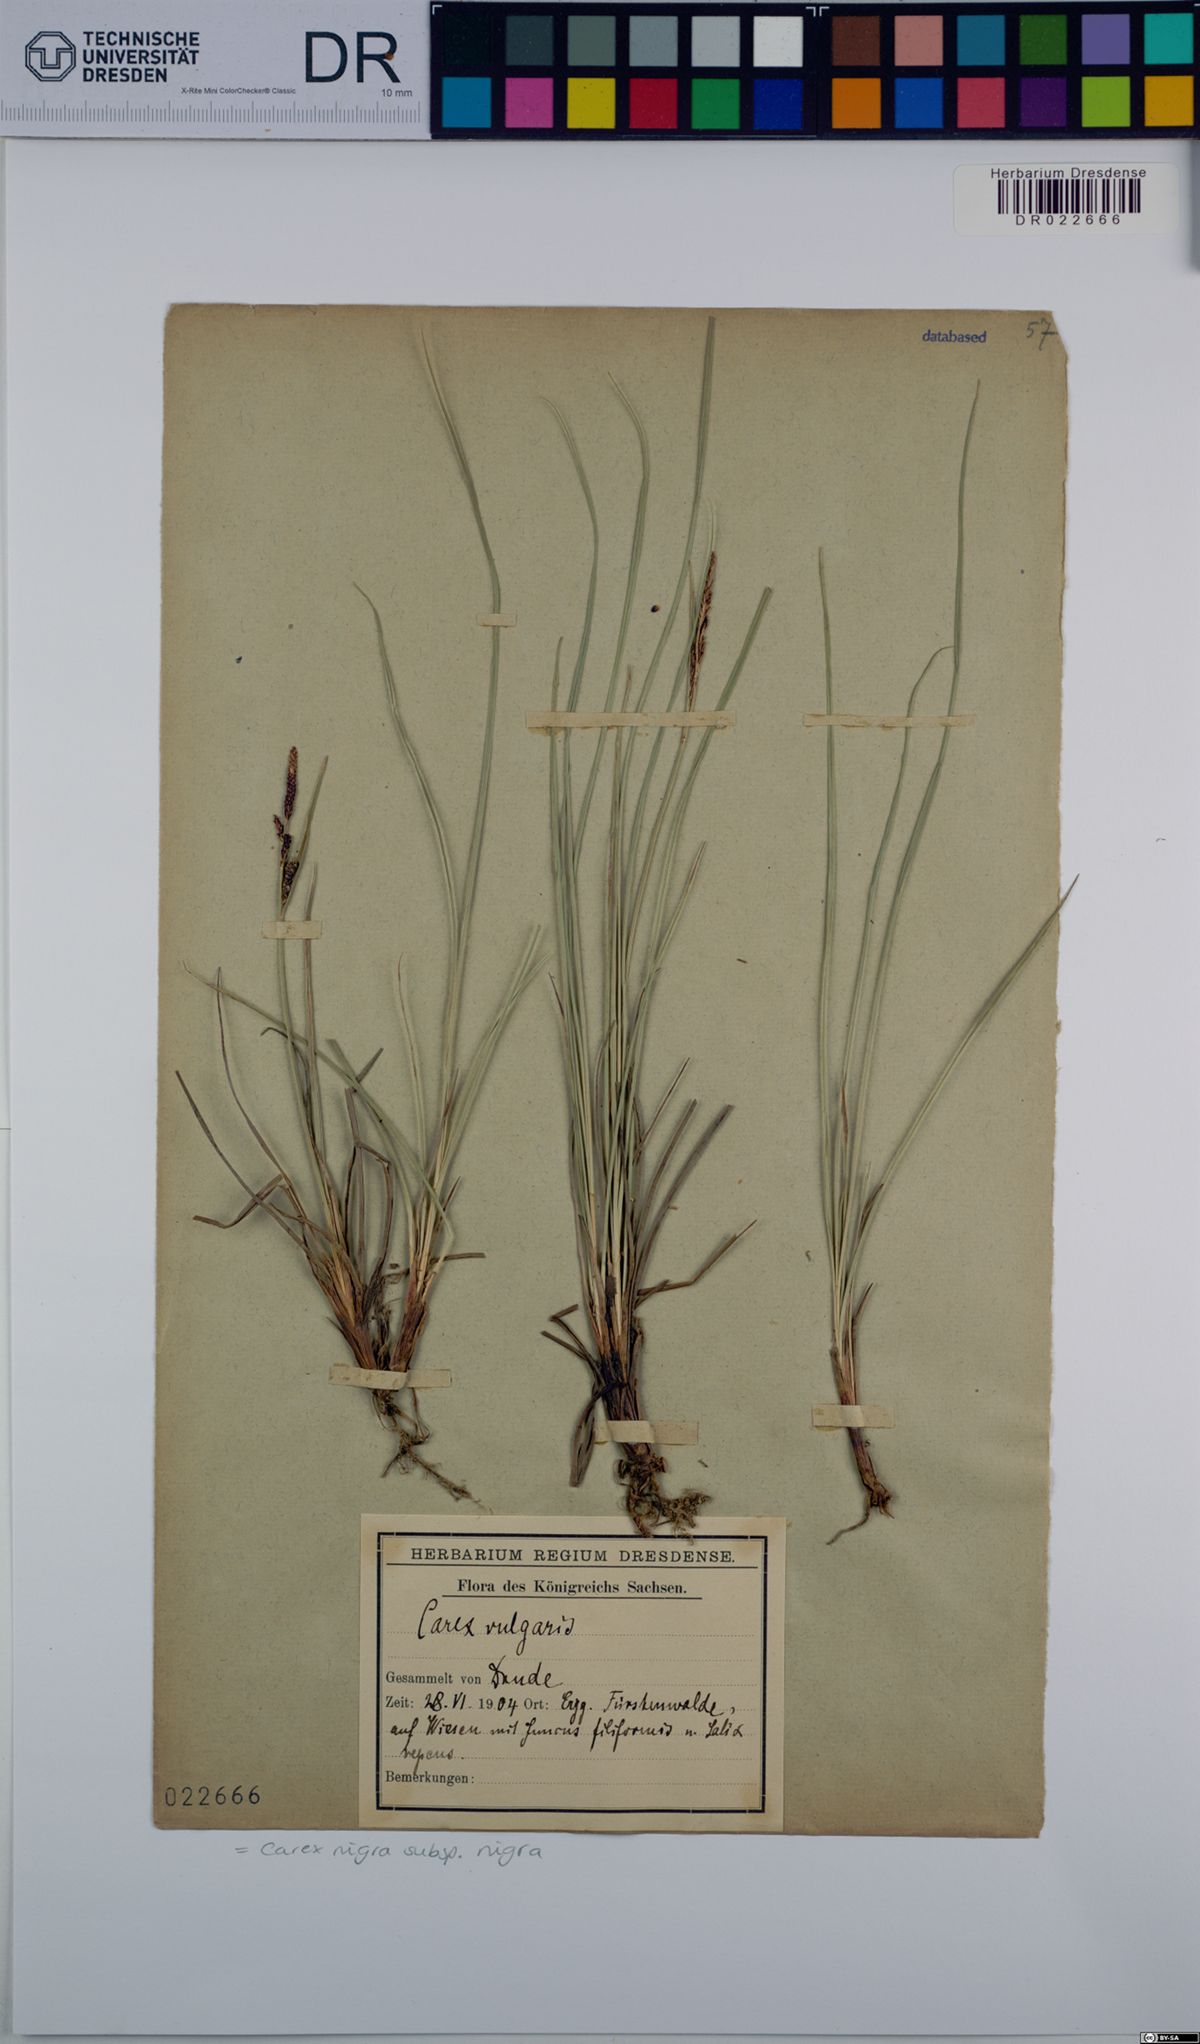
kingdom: Plantae
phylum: Tracheophyta
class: Liliopsida
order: Poales
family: Cyperaceae
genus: Carex
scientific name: Carex nigra
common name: Common sedge
